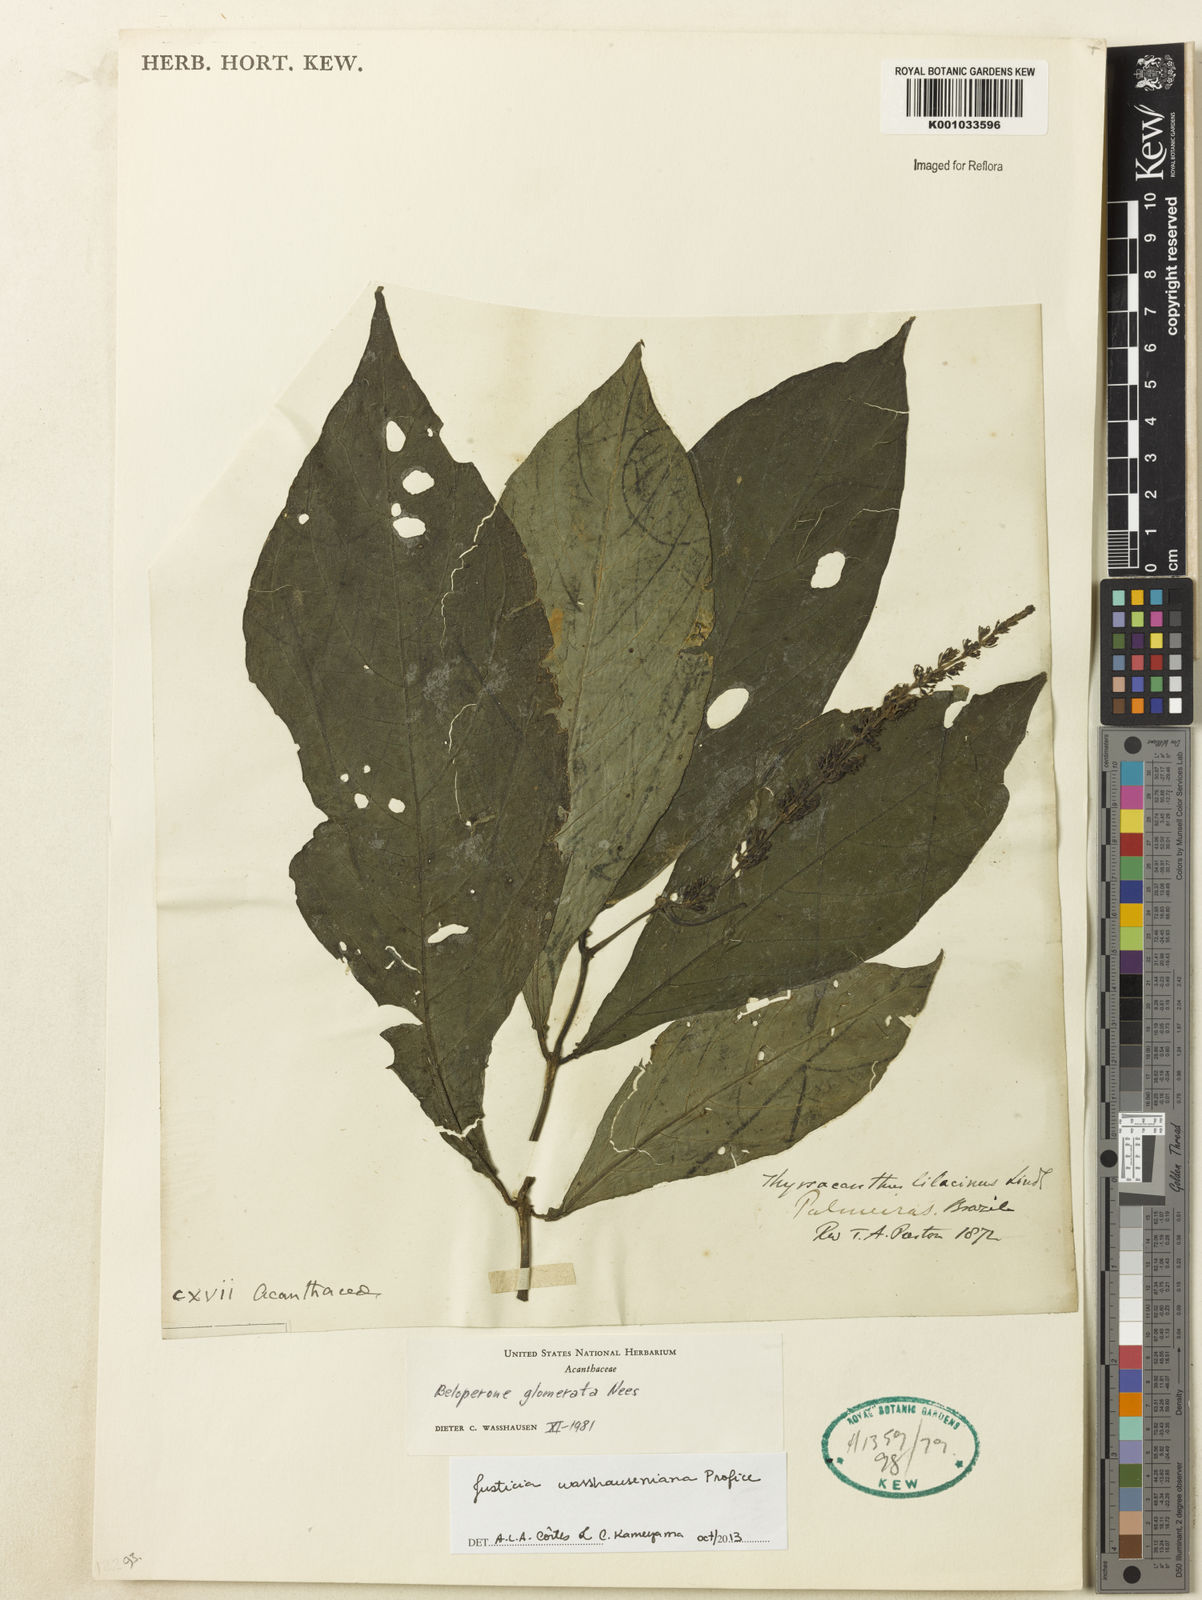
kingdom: Plantae
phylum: Tracheophyta
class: Magnoliopsida
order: Lamiales
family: Acanthaceae
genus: Justicia
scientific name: Justicia wasshauseniana
